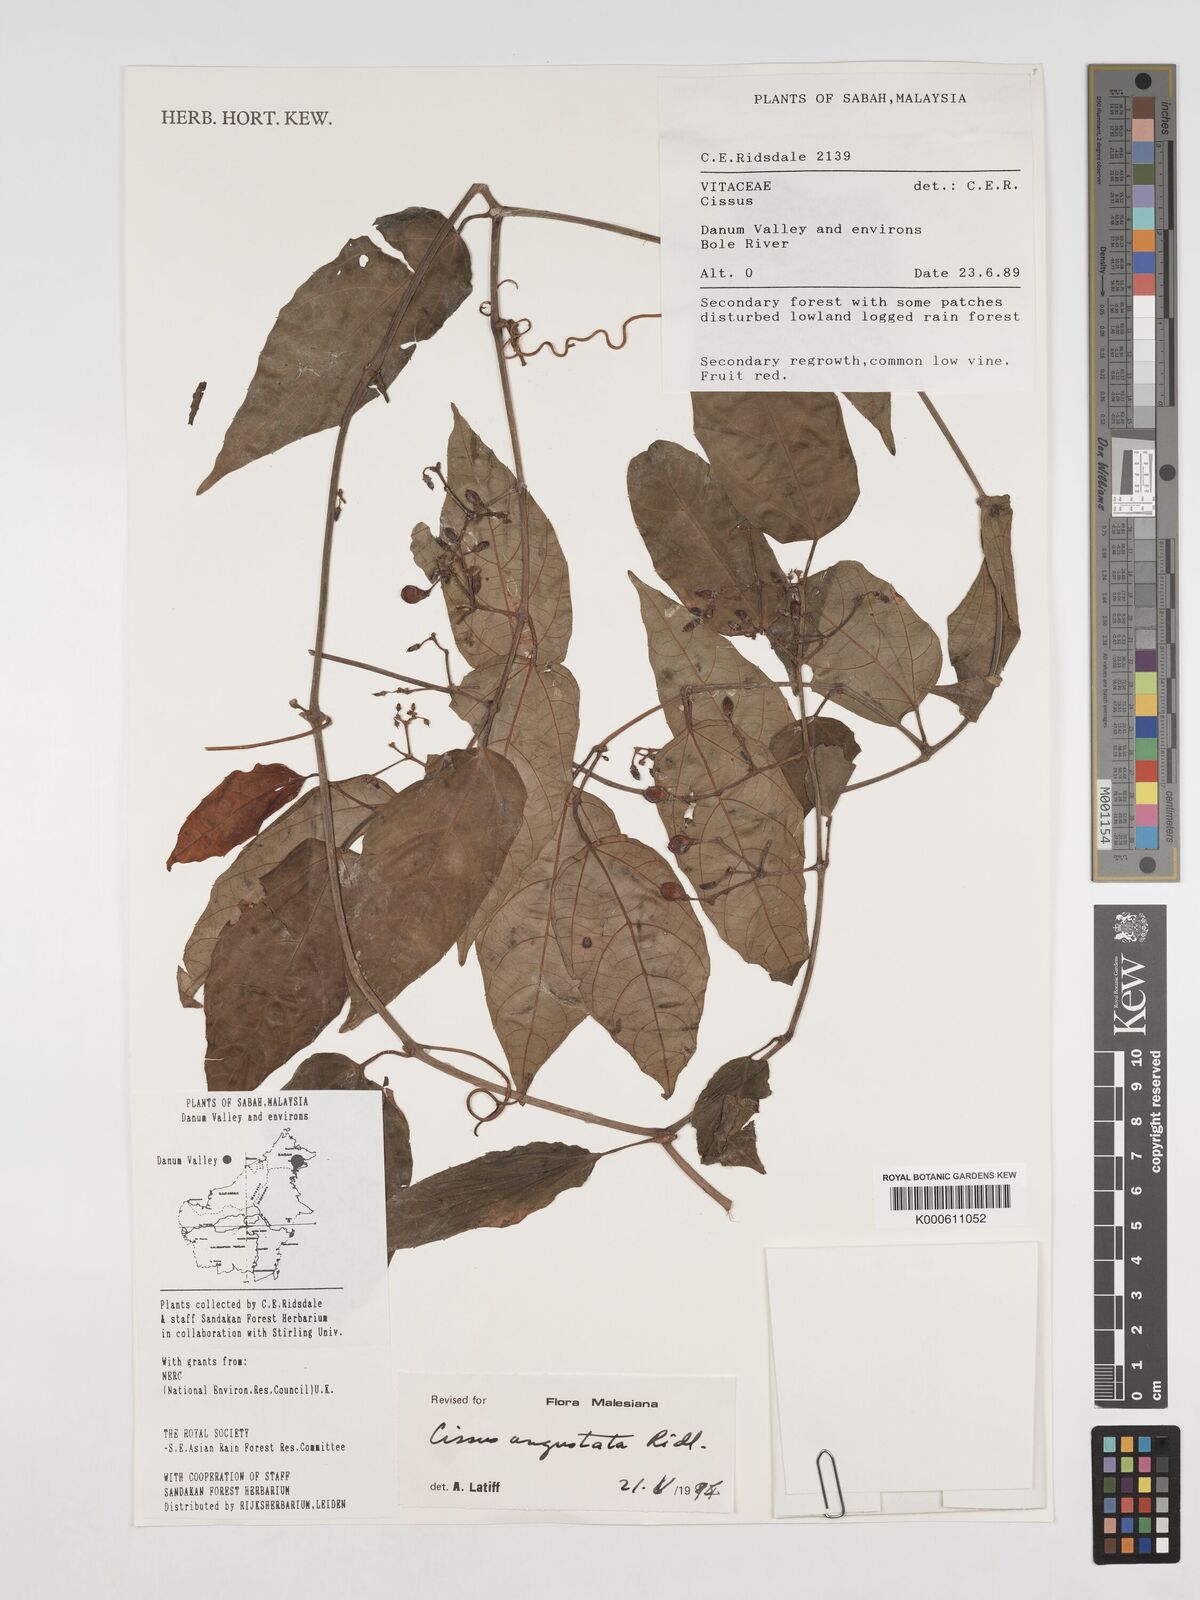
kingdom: Plantae
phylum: Tracheophyta
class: Magnoliopsida
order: Vitales
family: Vitaceae
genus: Cissus
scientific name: Cissus angustata
